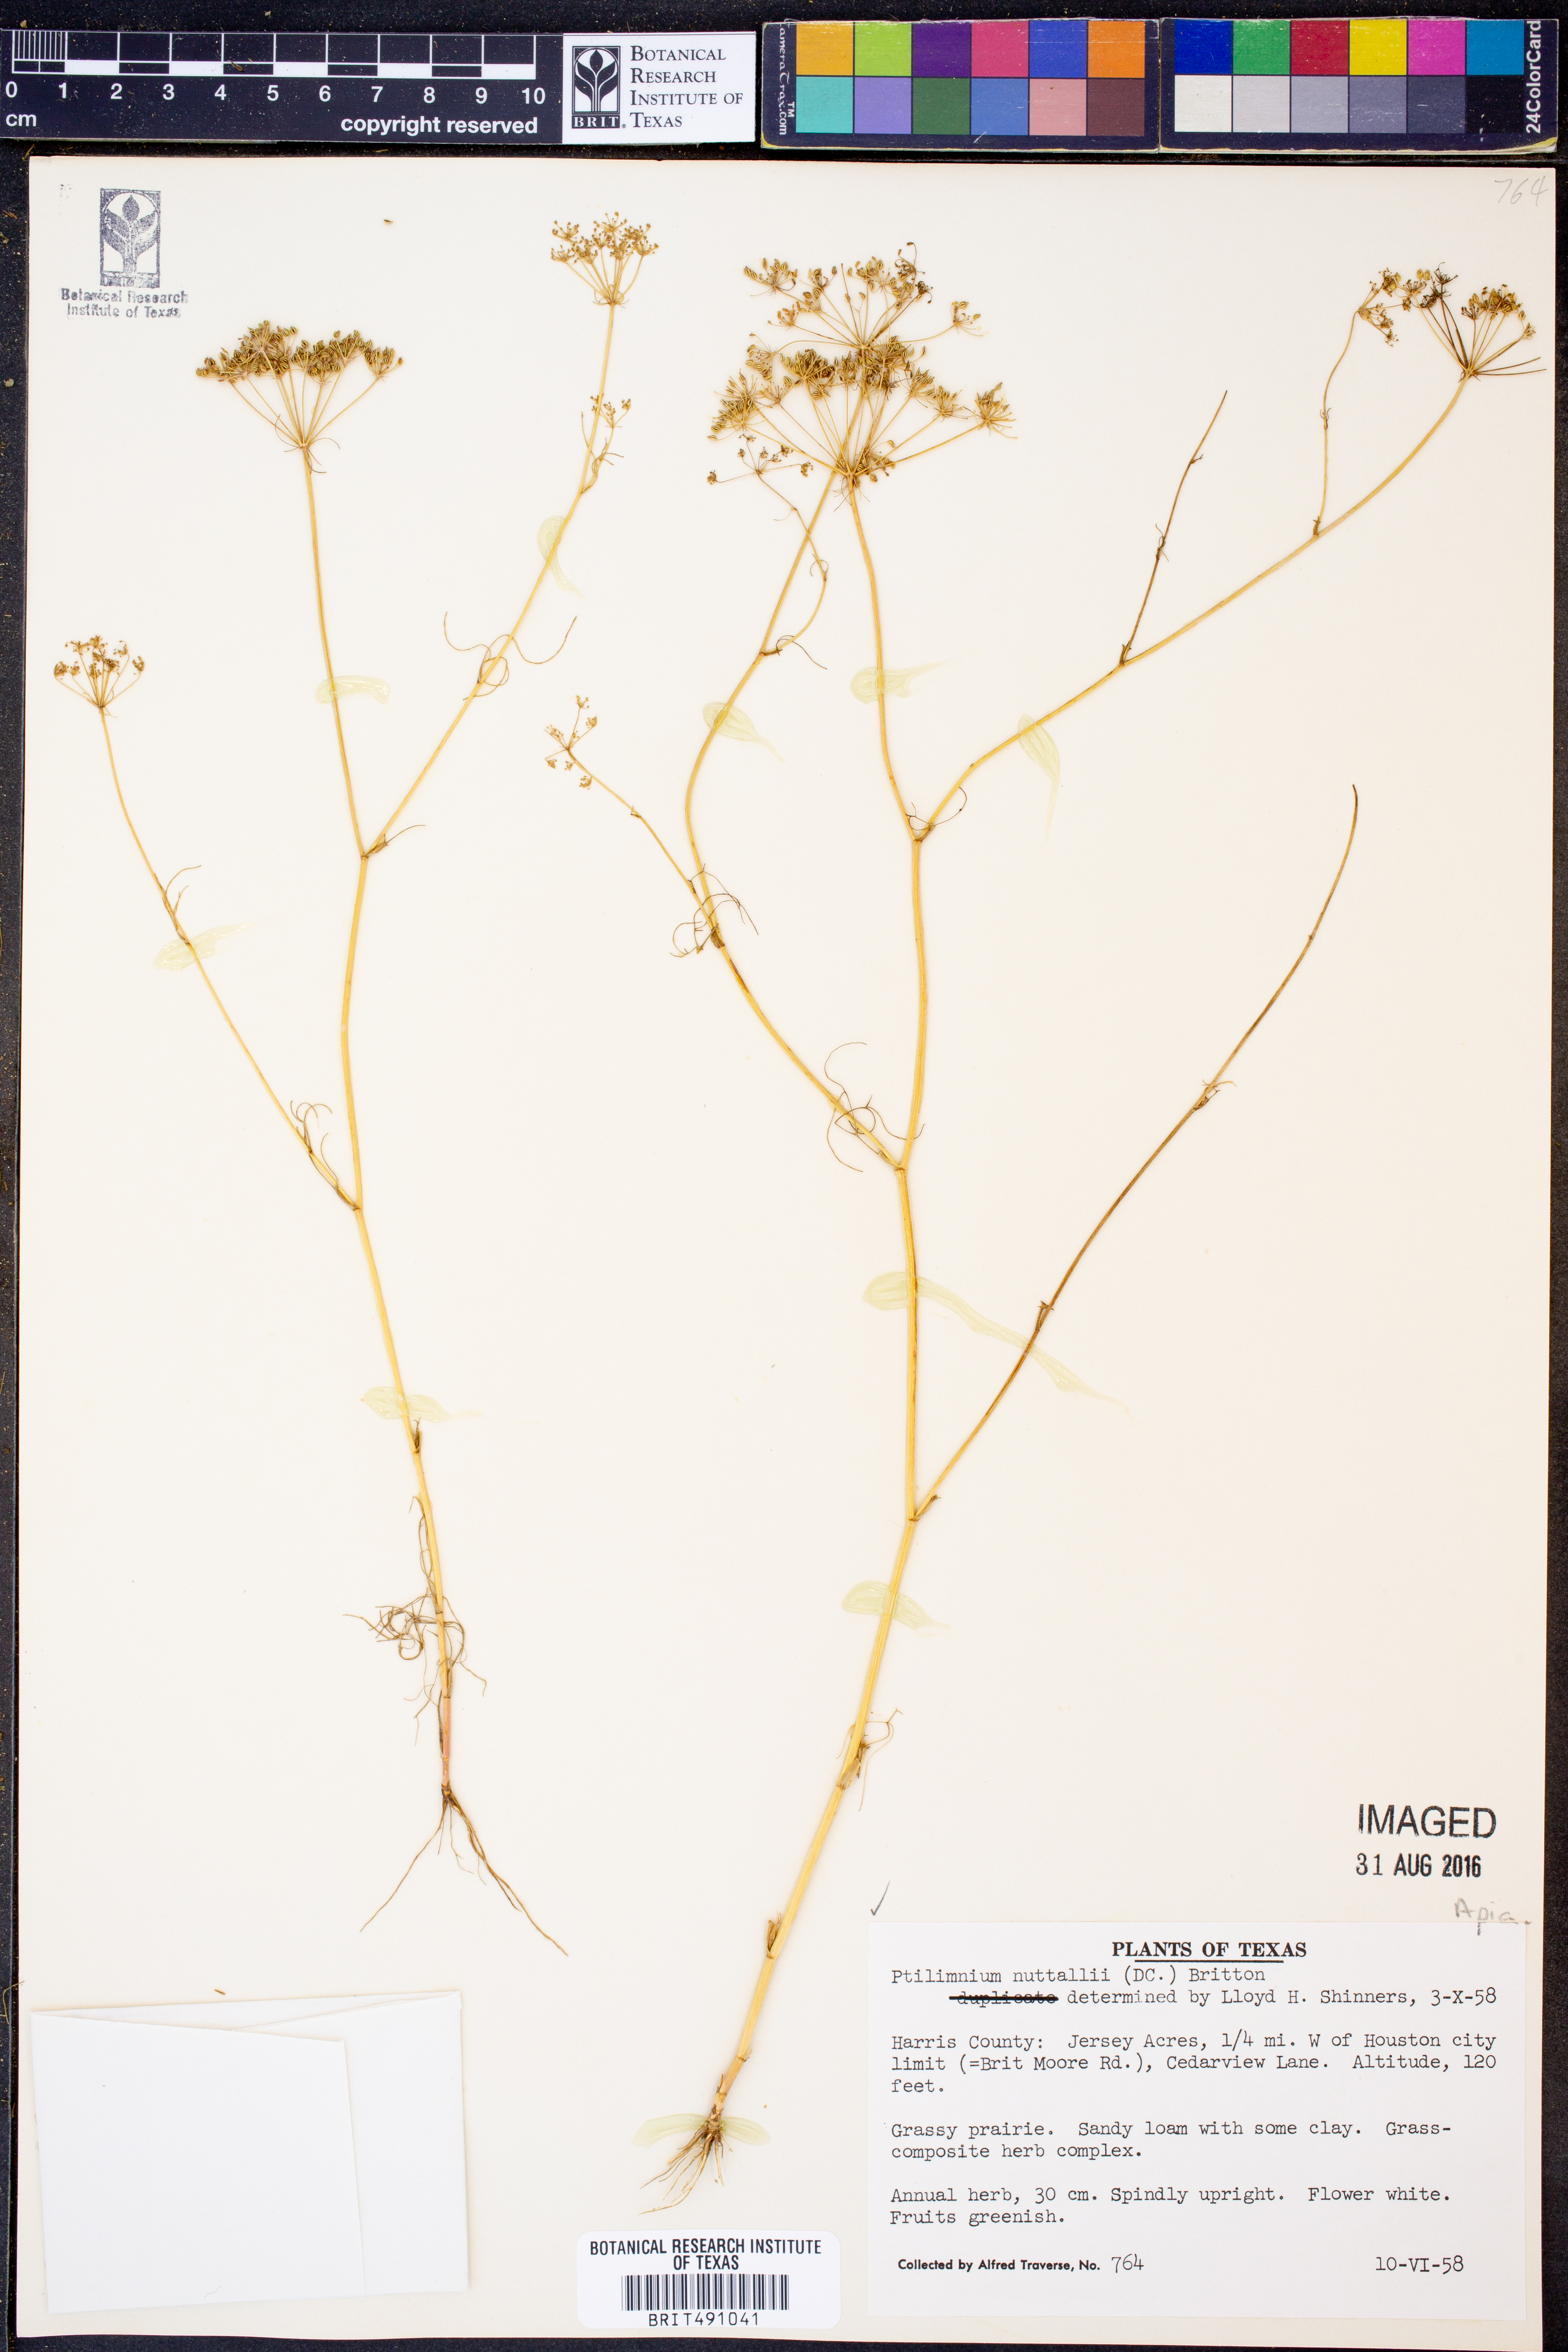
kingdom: Plantae
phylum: Tracheophyta
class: Magnoliopsida
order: Apiales
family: Apiaceae
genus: Ptilimnium
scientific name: Ptilimnium nuttallii
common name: Ozark bishop's-weed
